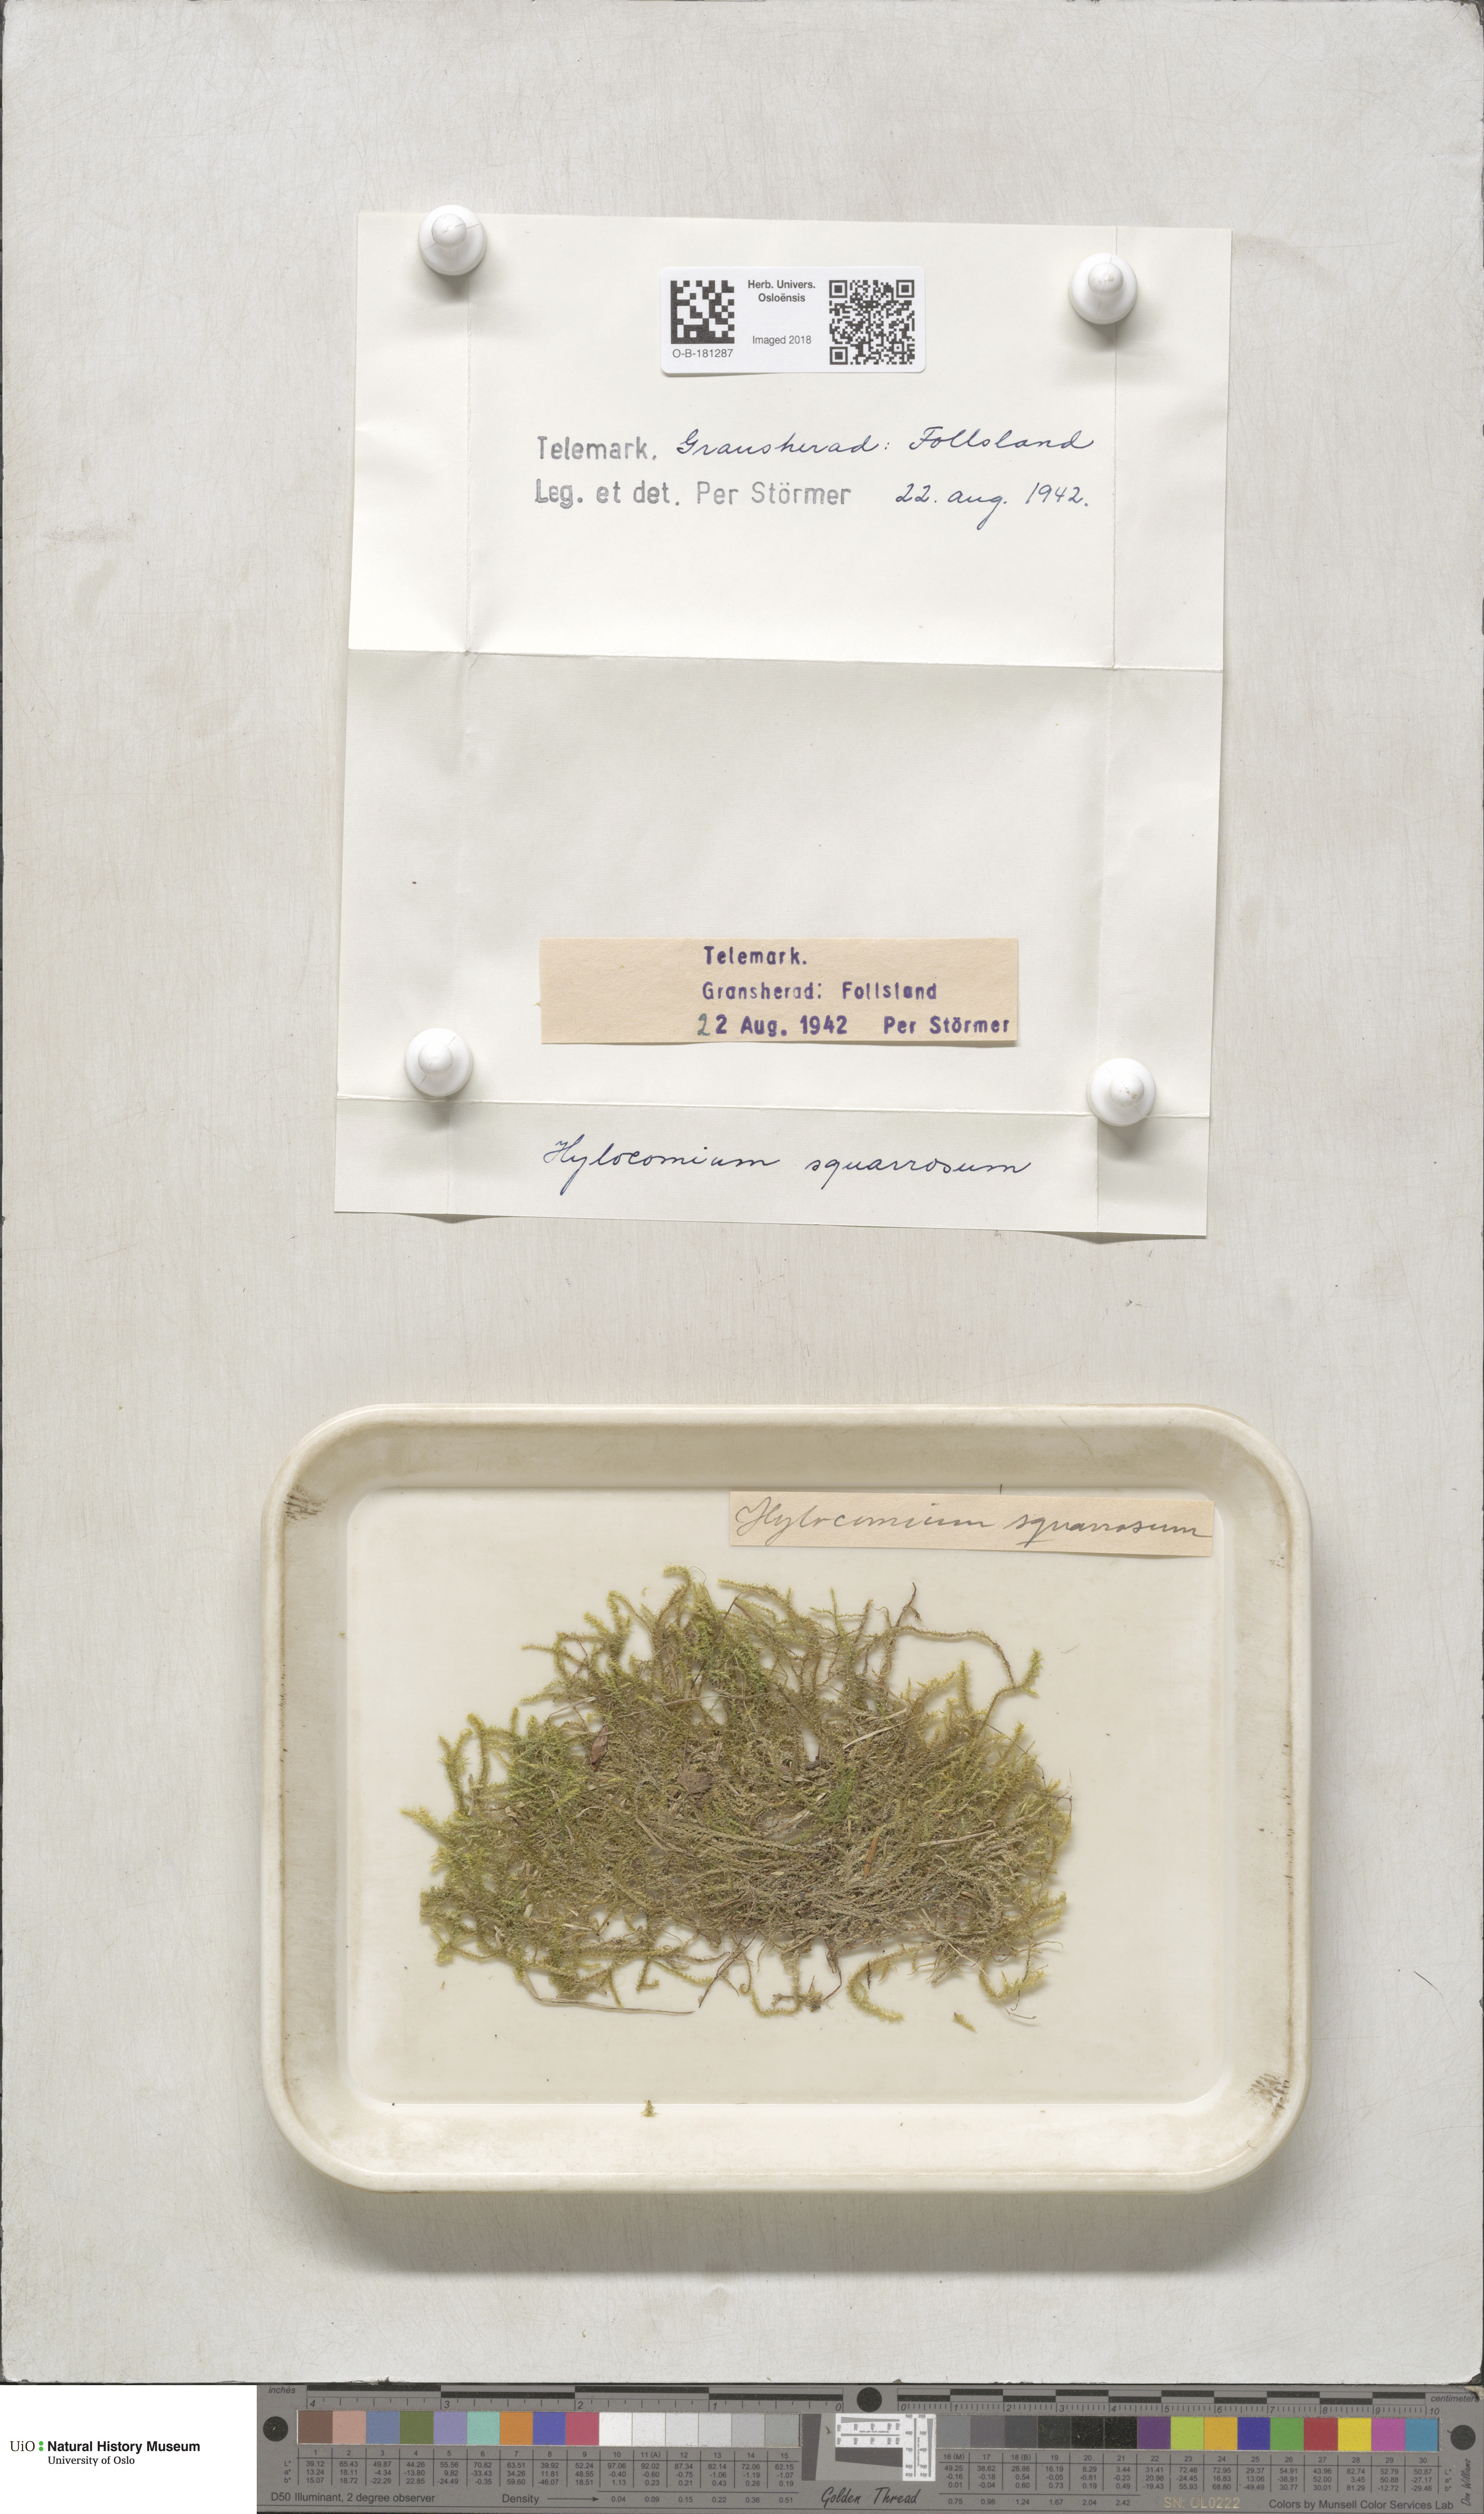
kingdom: Plantae
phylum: Bryophyta
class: Bryopsida
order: Hypnales
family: Hylocomiaceae
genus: Rhytidiadelphus
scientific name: Rhytidiadelphus squarrosus
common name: Springy turf-moss
